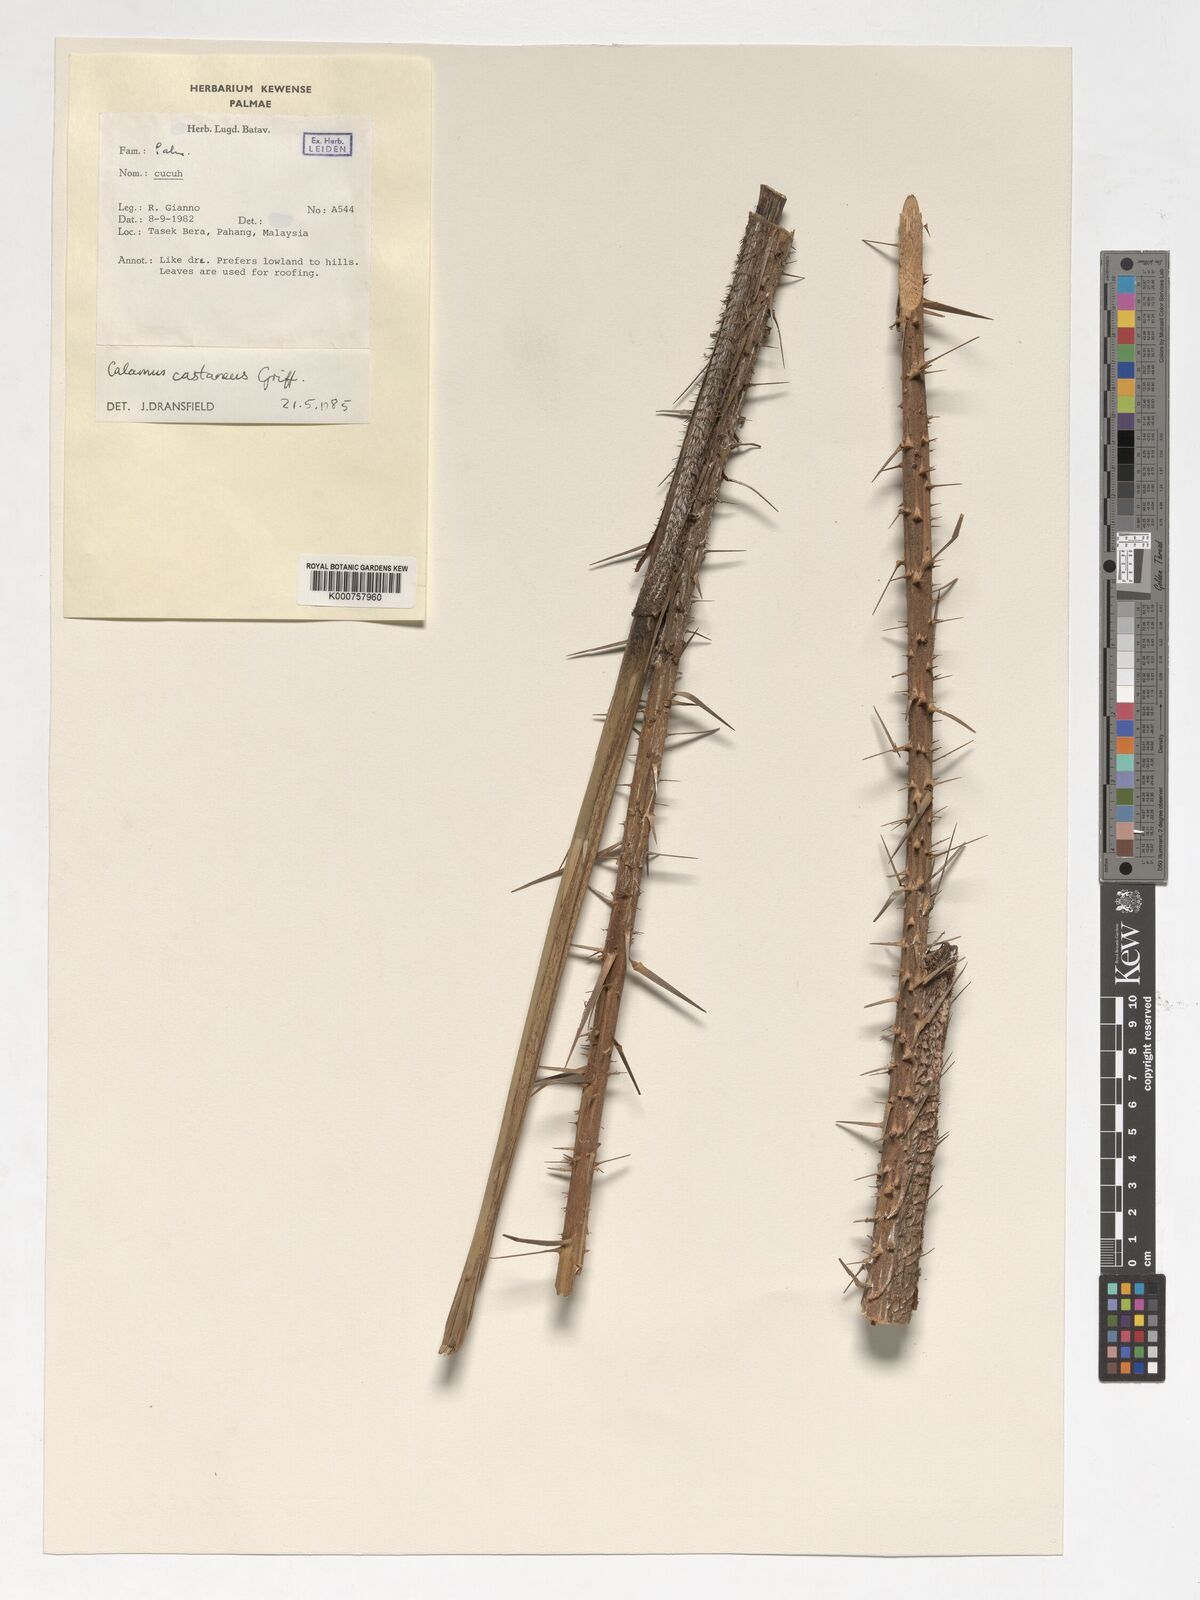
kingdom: Plantae
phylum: Tracheophyta
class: Liliopsida
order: Arecales
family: Arecaceae
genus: Calamus
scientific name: Calamus castaneus
